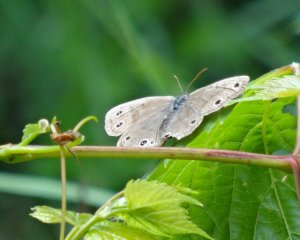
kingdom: Animalia
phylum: Arthropoda
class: Insecta
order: Lepidoptera
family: Nymphalidae
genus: Euptychia
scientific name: Euptychia cymela
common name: Little Wood Satyr
